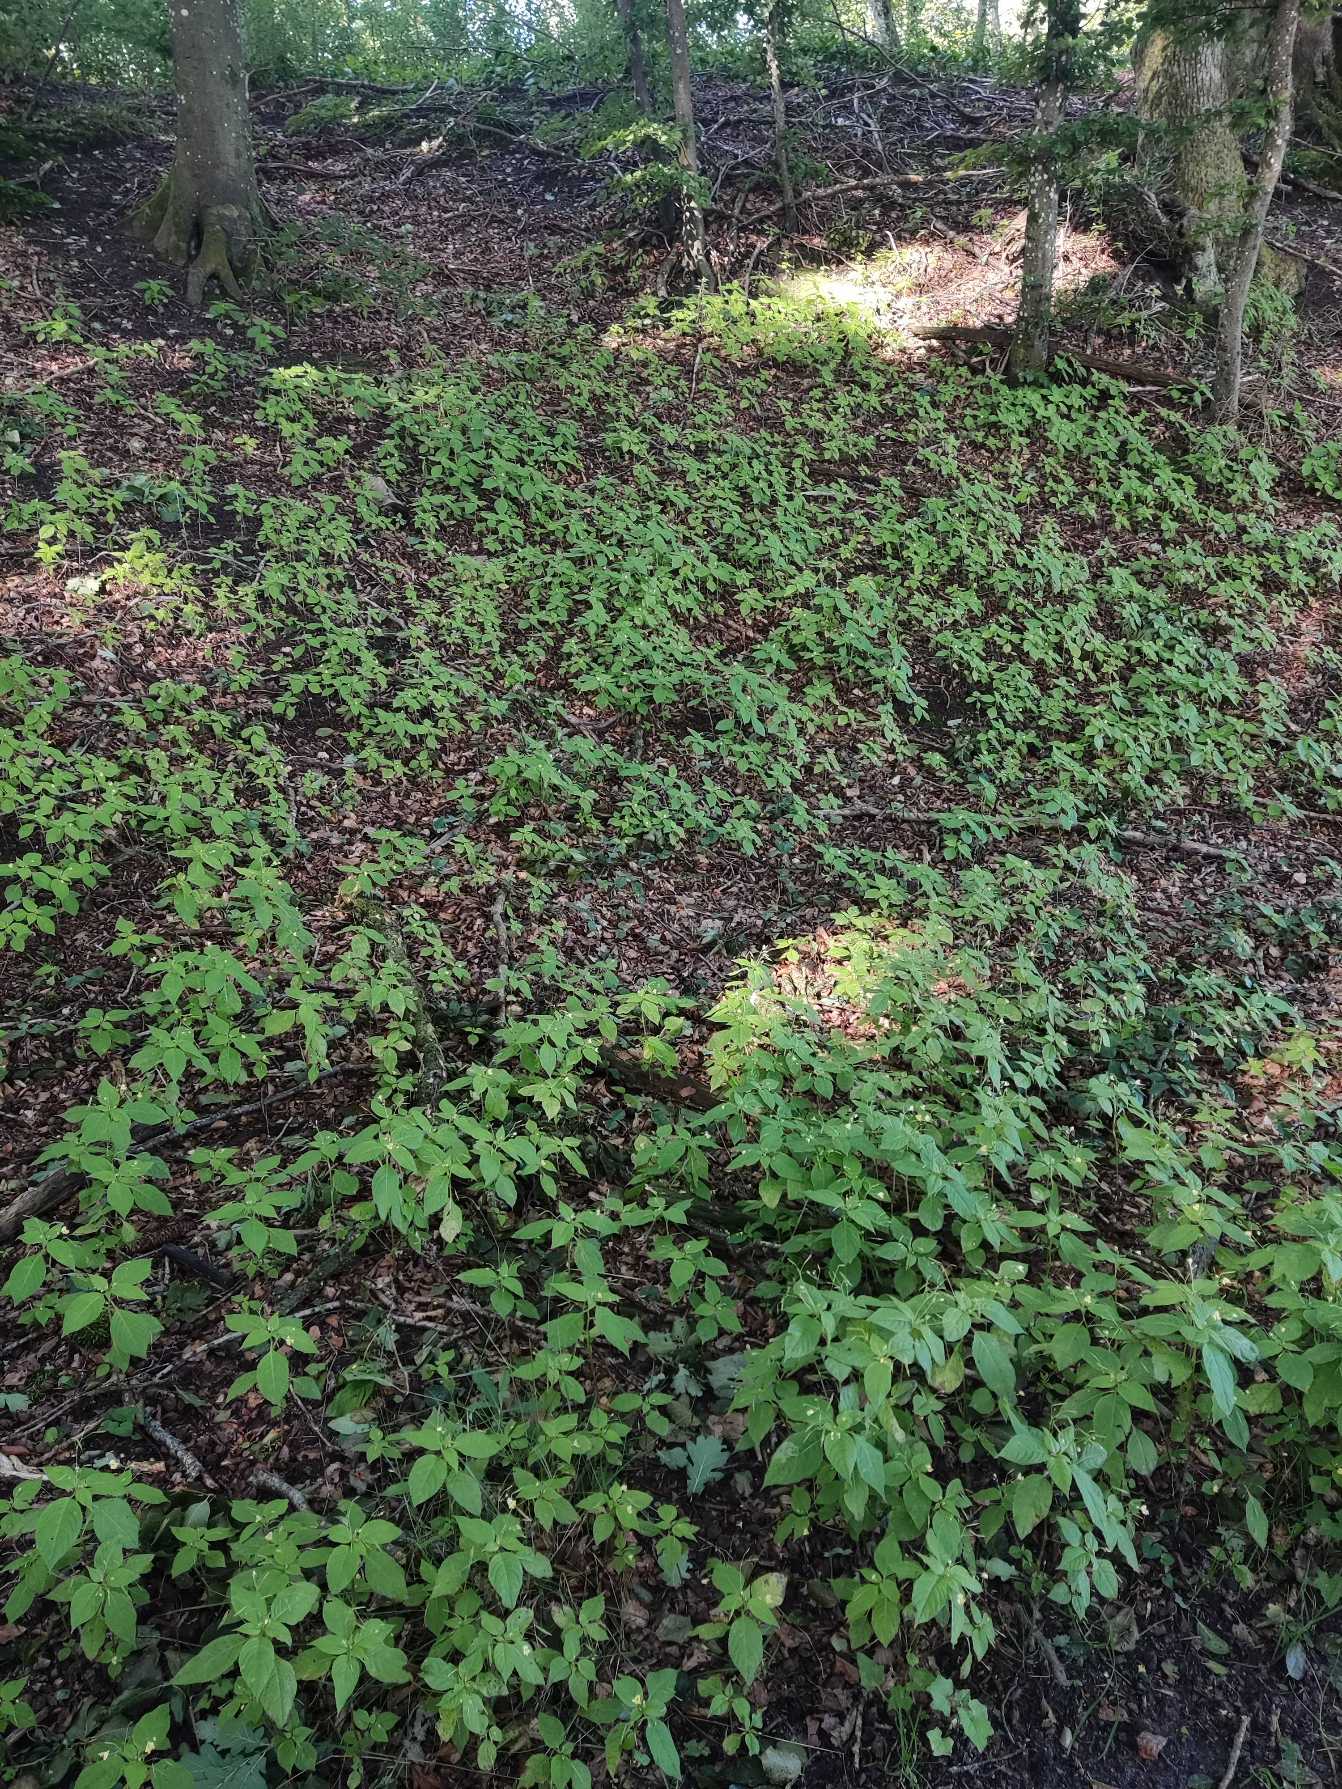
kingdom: Plantae
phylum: Tracheophyta
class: Magnoliopsida
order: Ericales
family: Balsaminaceae
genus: Impatiens
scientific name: Impatiens parviflora
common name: Småblomstret balsamin
